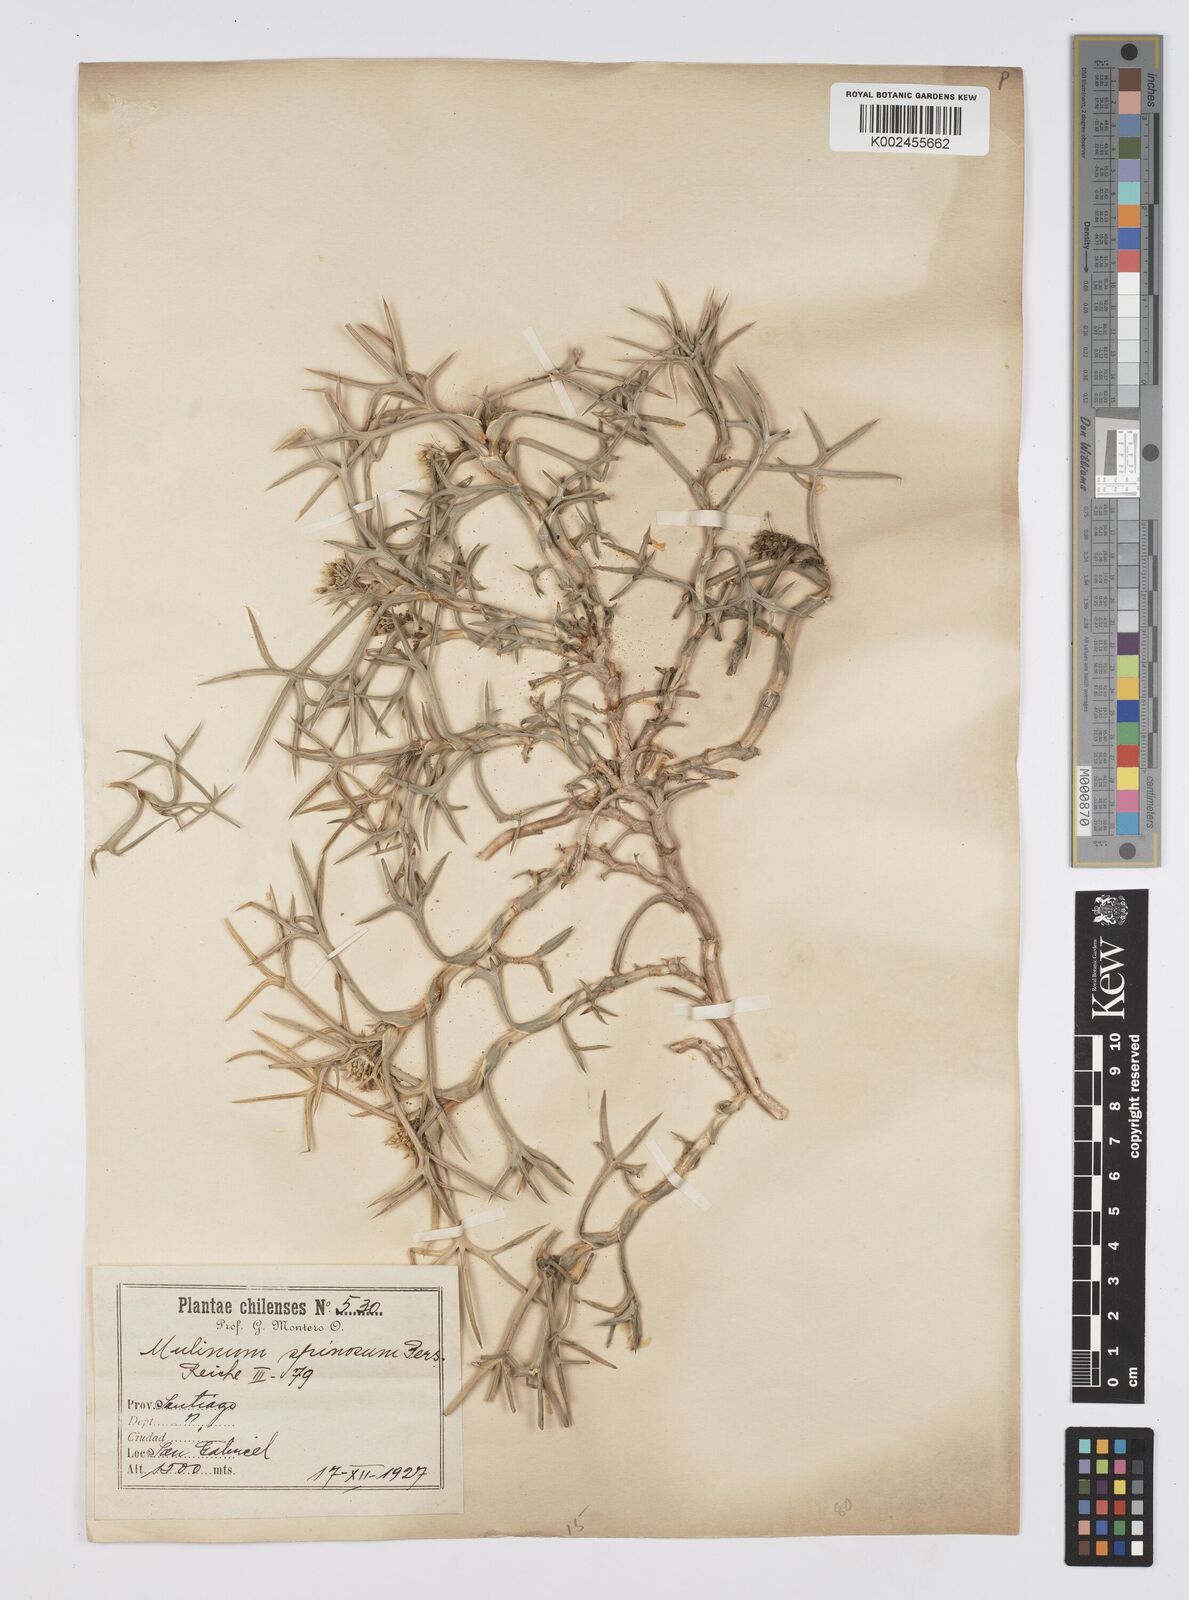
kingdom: Plantae
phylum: Tracheophyta
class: Magnoliopsida
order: Apiales
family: Apiaceae
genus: Azorella
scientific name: Azorella prolifera
